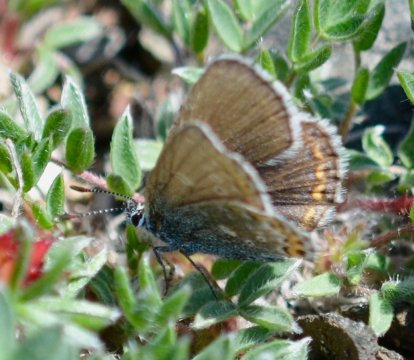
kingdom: Animalia
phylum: Arthropoda
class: Insecta
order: Lepidoptera
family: Lycaenidae
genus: Lycaeides
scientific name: Lycaeides idas
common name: Northern Blue
